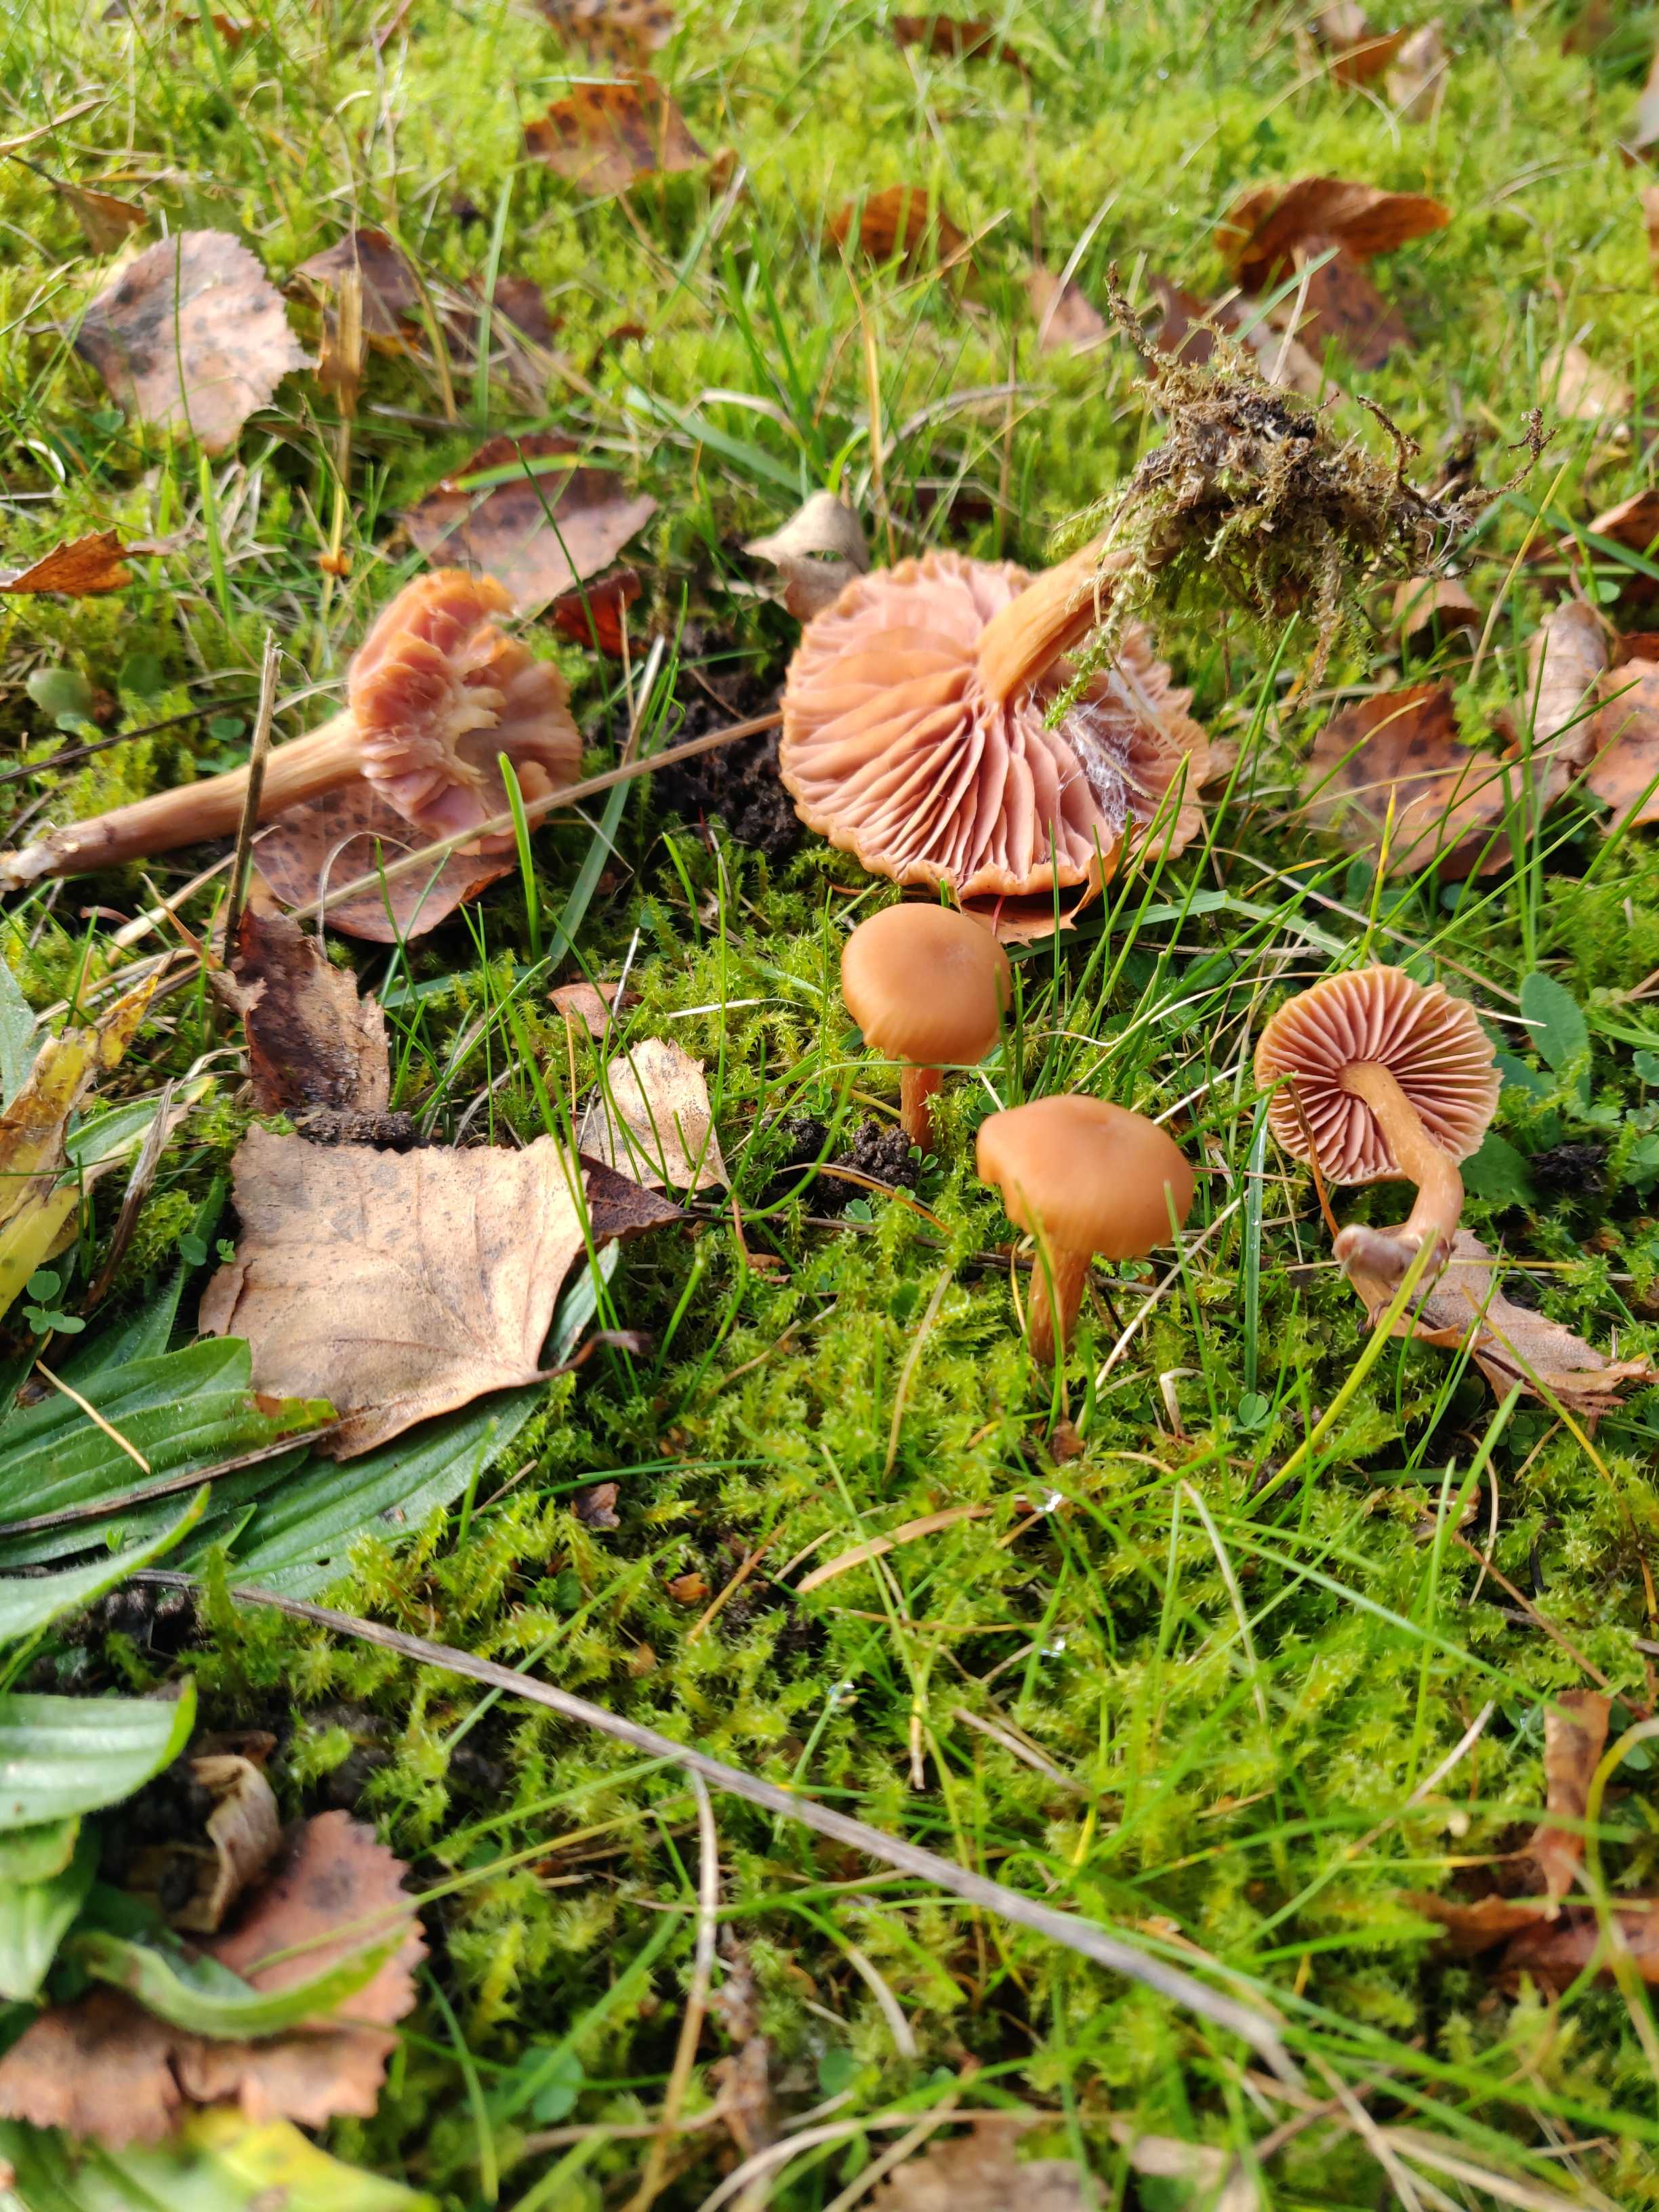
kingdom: Fungi
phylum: Basidiomycota
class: Agaricomycetes
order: Agaricales
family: Hydnangiaceae
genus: Laccaria
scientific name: Laccaria laccata
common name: rød ametysthat
